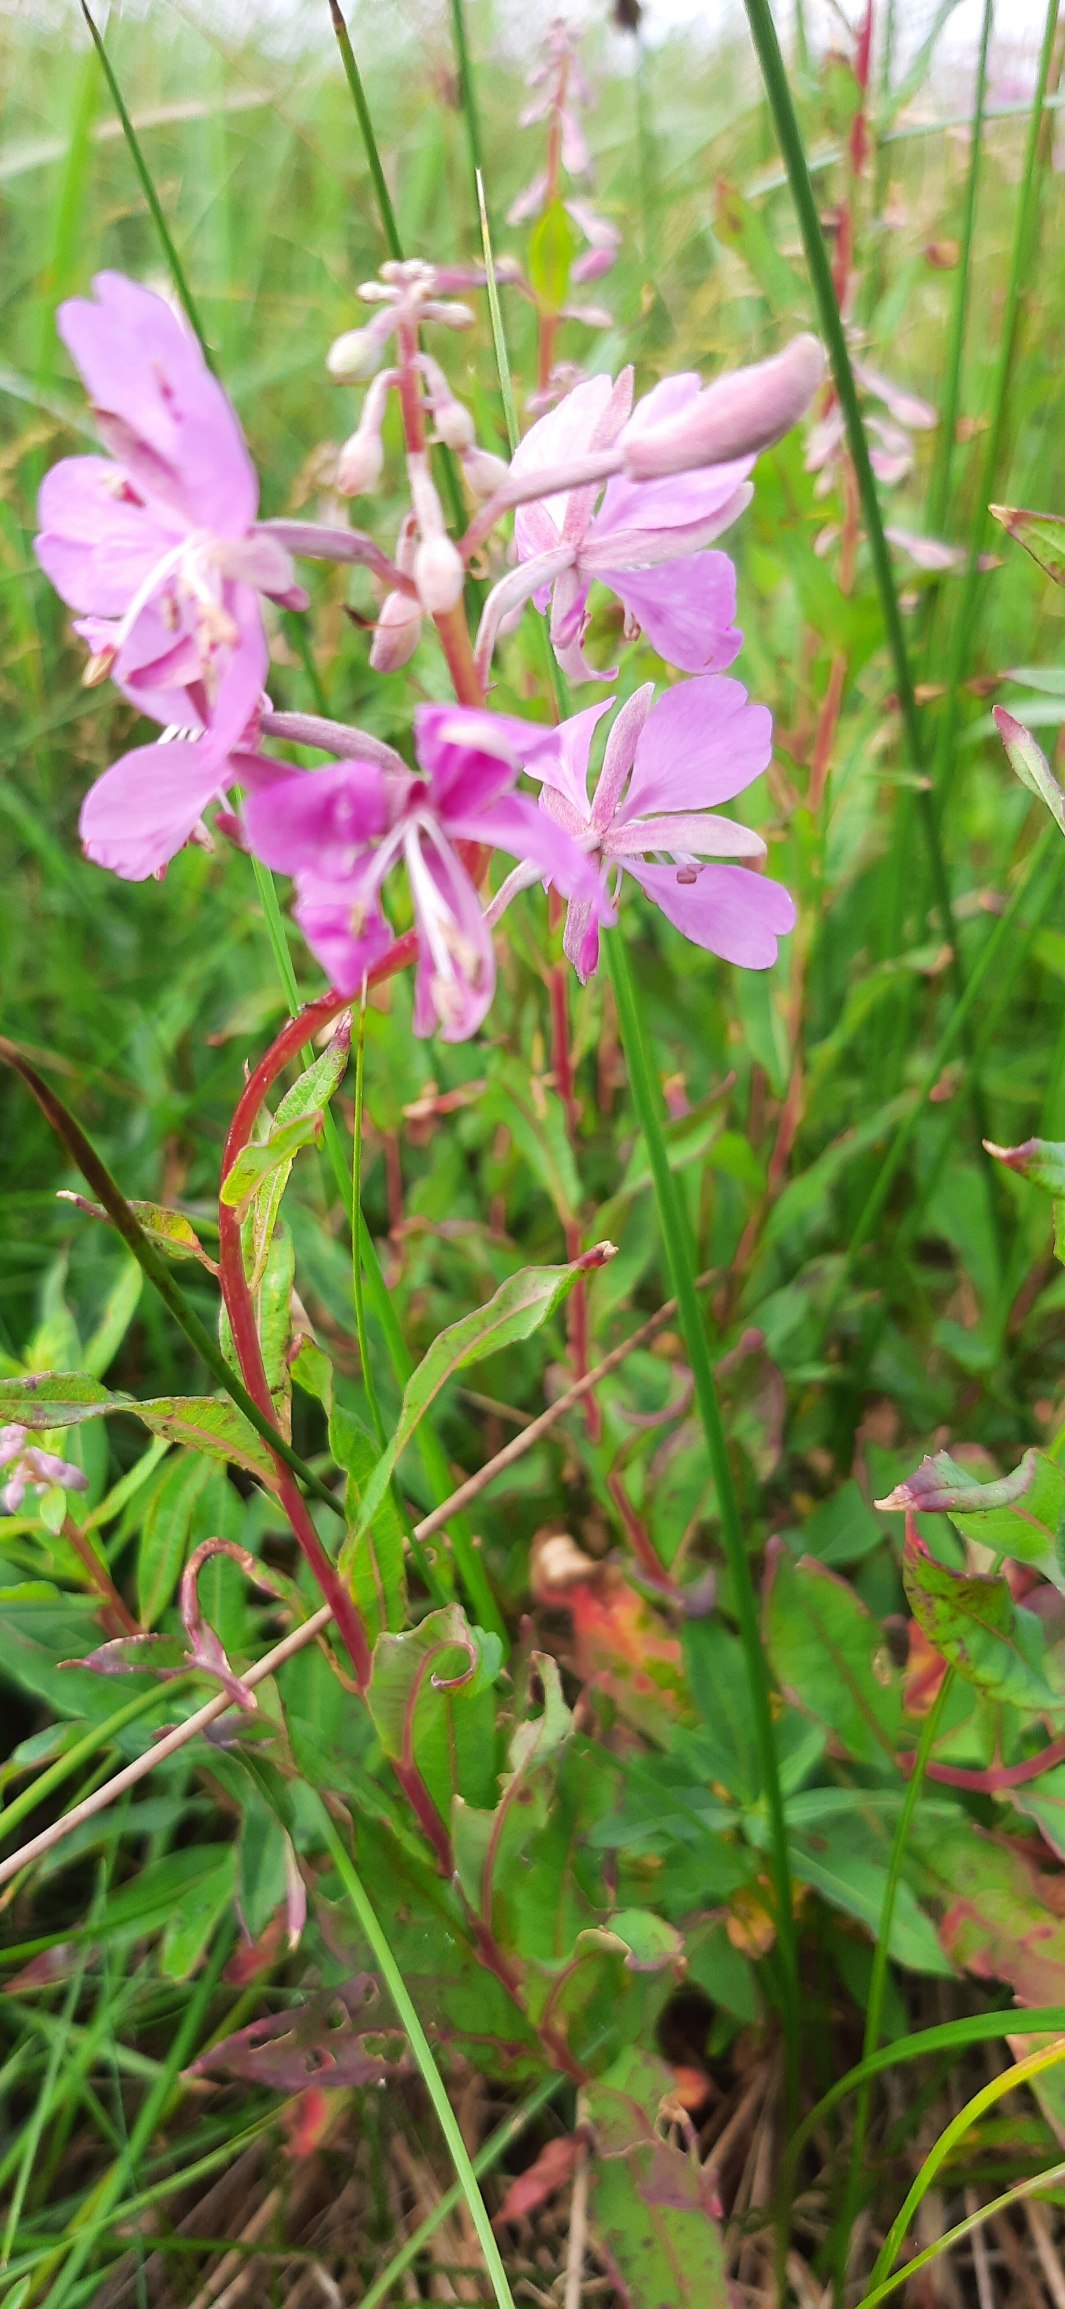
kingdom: Plantae
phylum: Tracheophyta
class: Magnoliopsida
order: Myrtales
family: Onagraceae
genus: Chamaenerion
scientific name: Chamaenerion angustifolium
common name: Gederams
